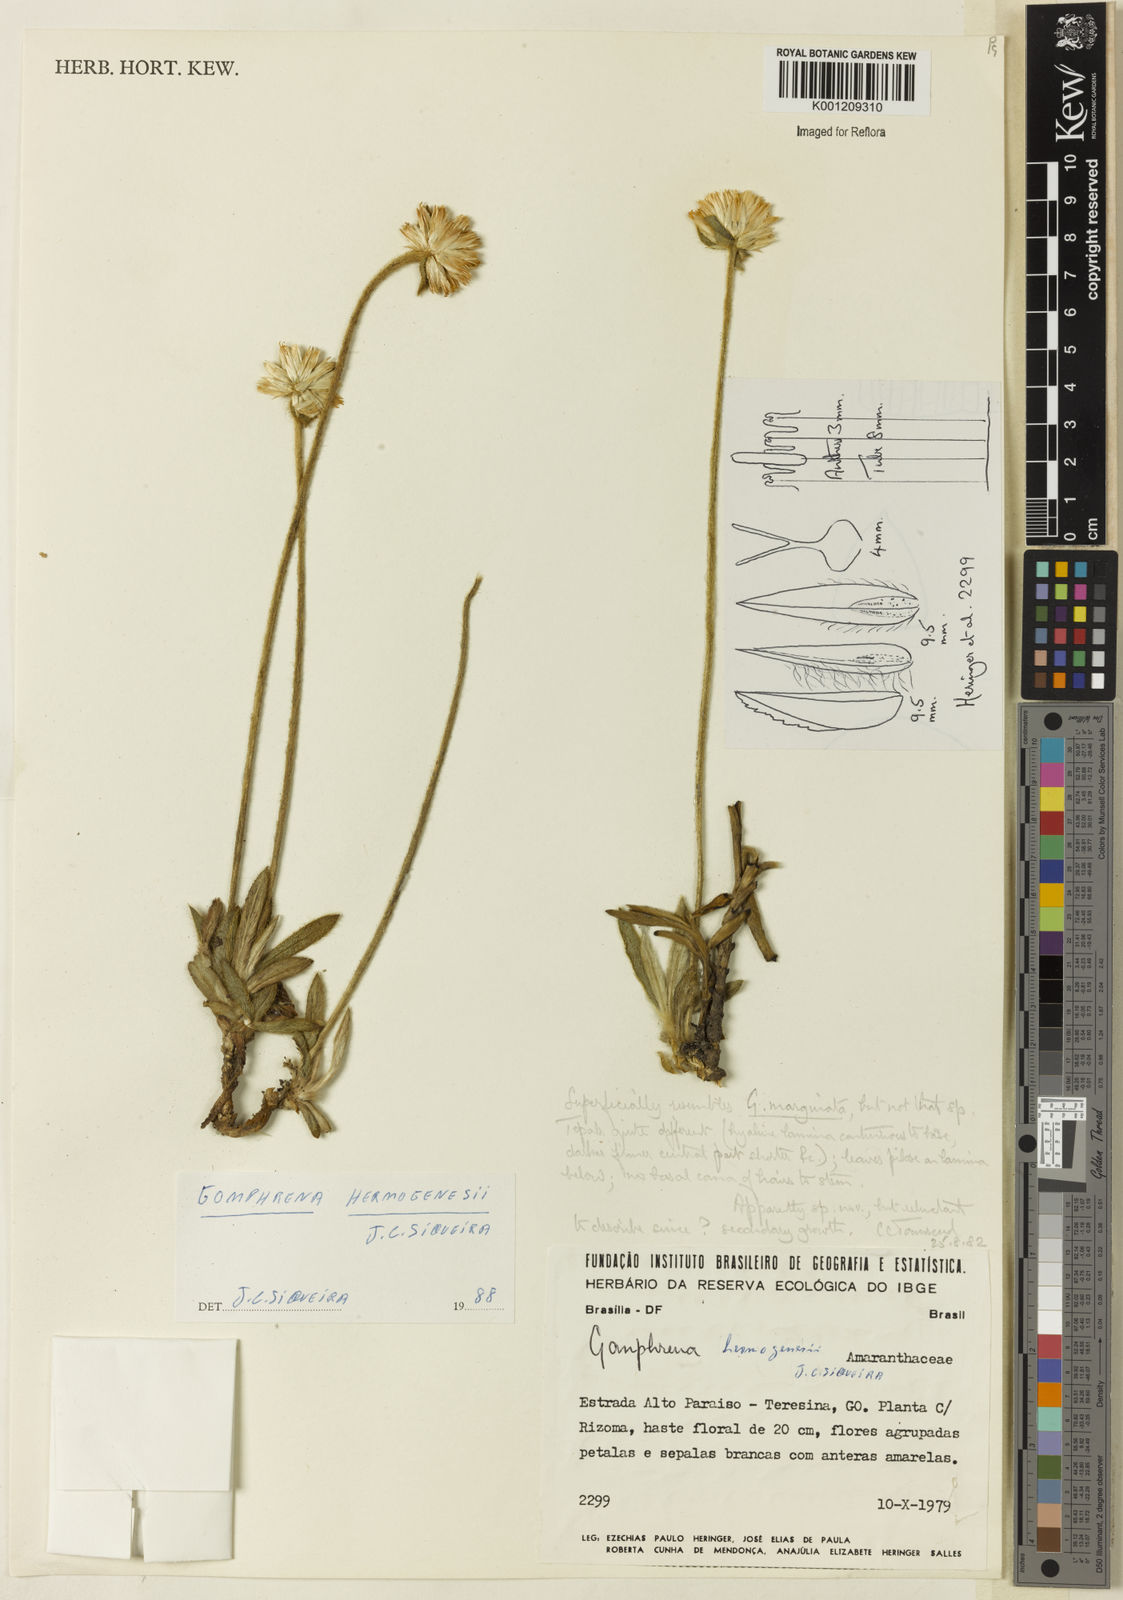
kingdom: Plantae
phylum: Tracheophyta
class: Magnoliopsida
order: Caryophyllales
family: Amaranthaceae
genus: Gomphrena
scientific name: Gomphrena hermogenesii
